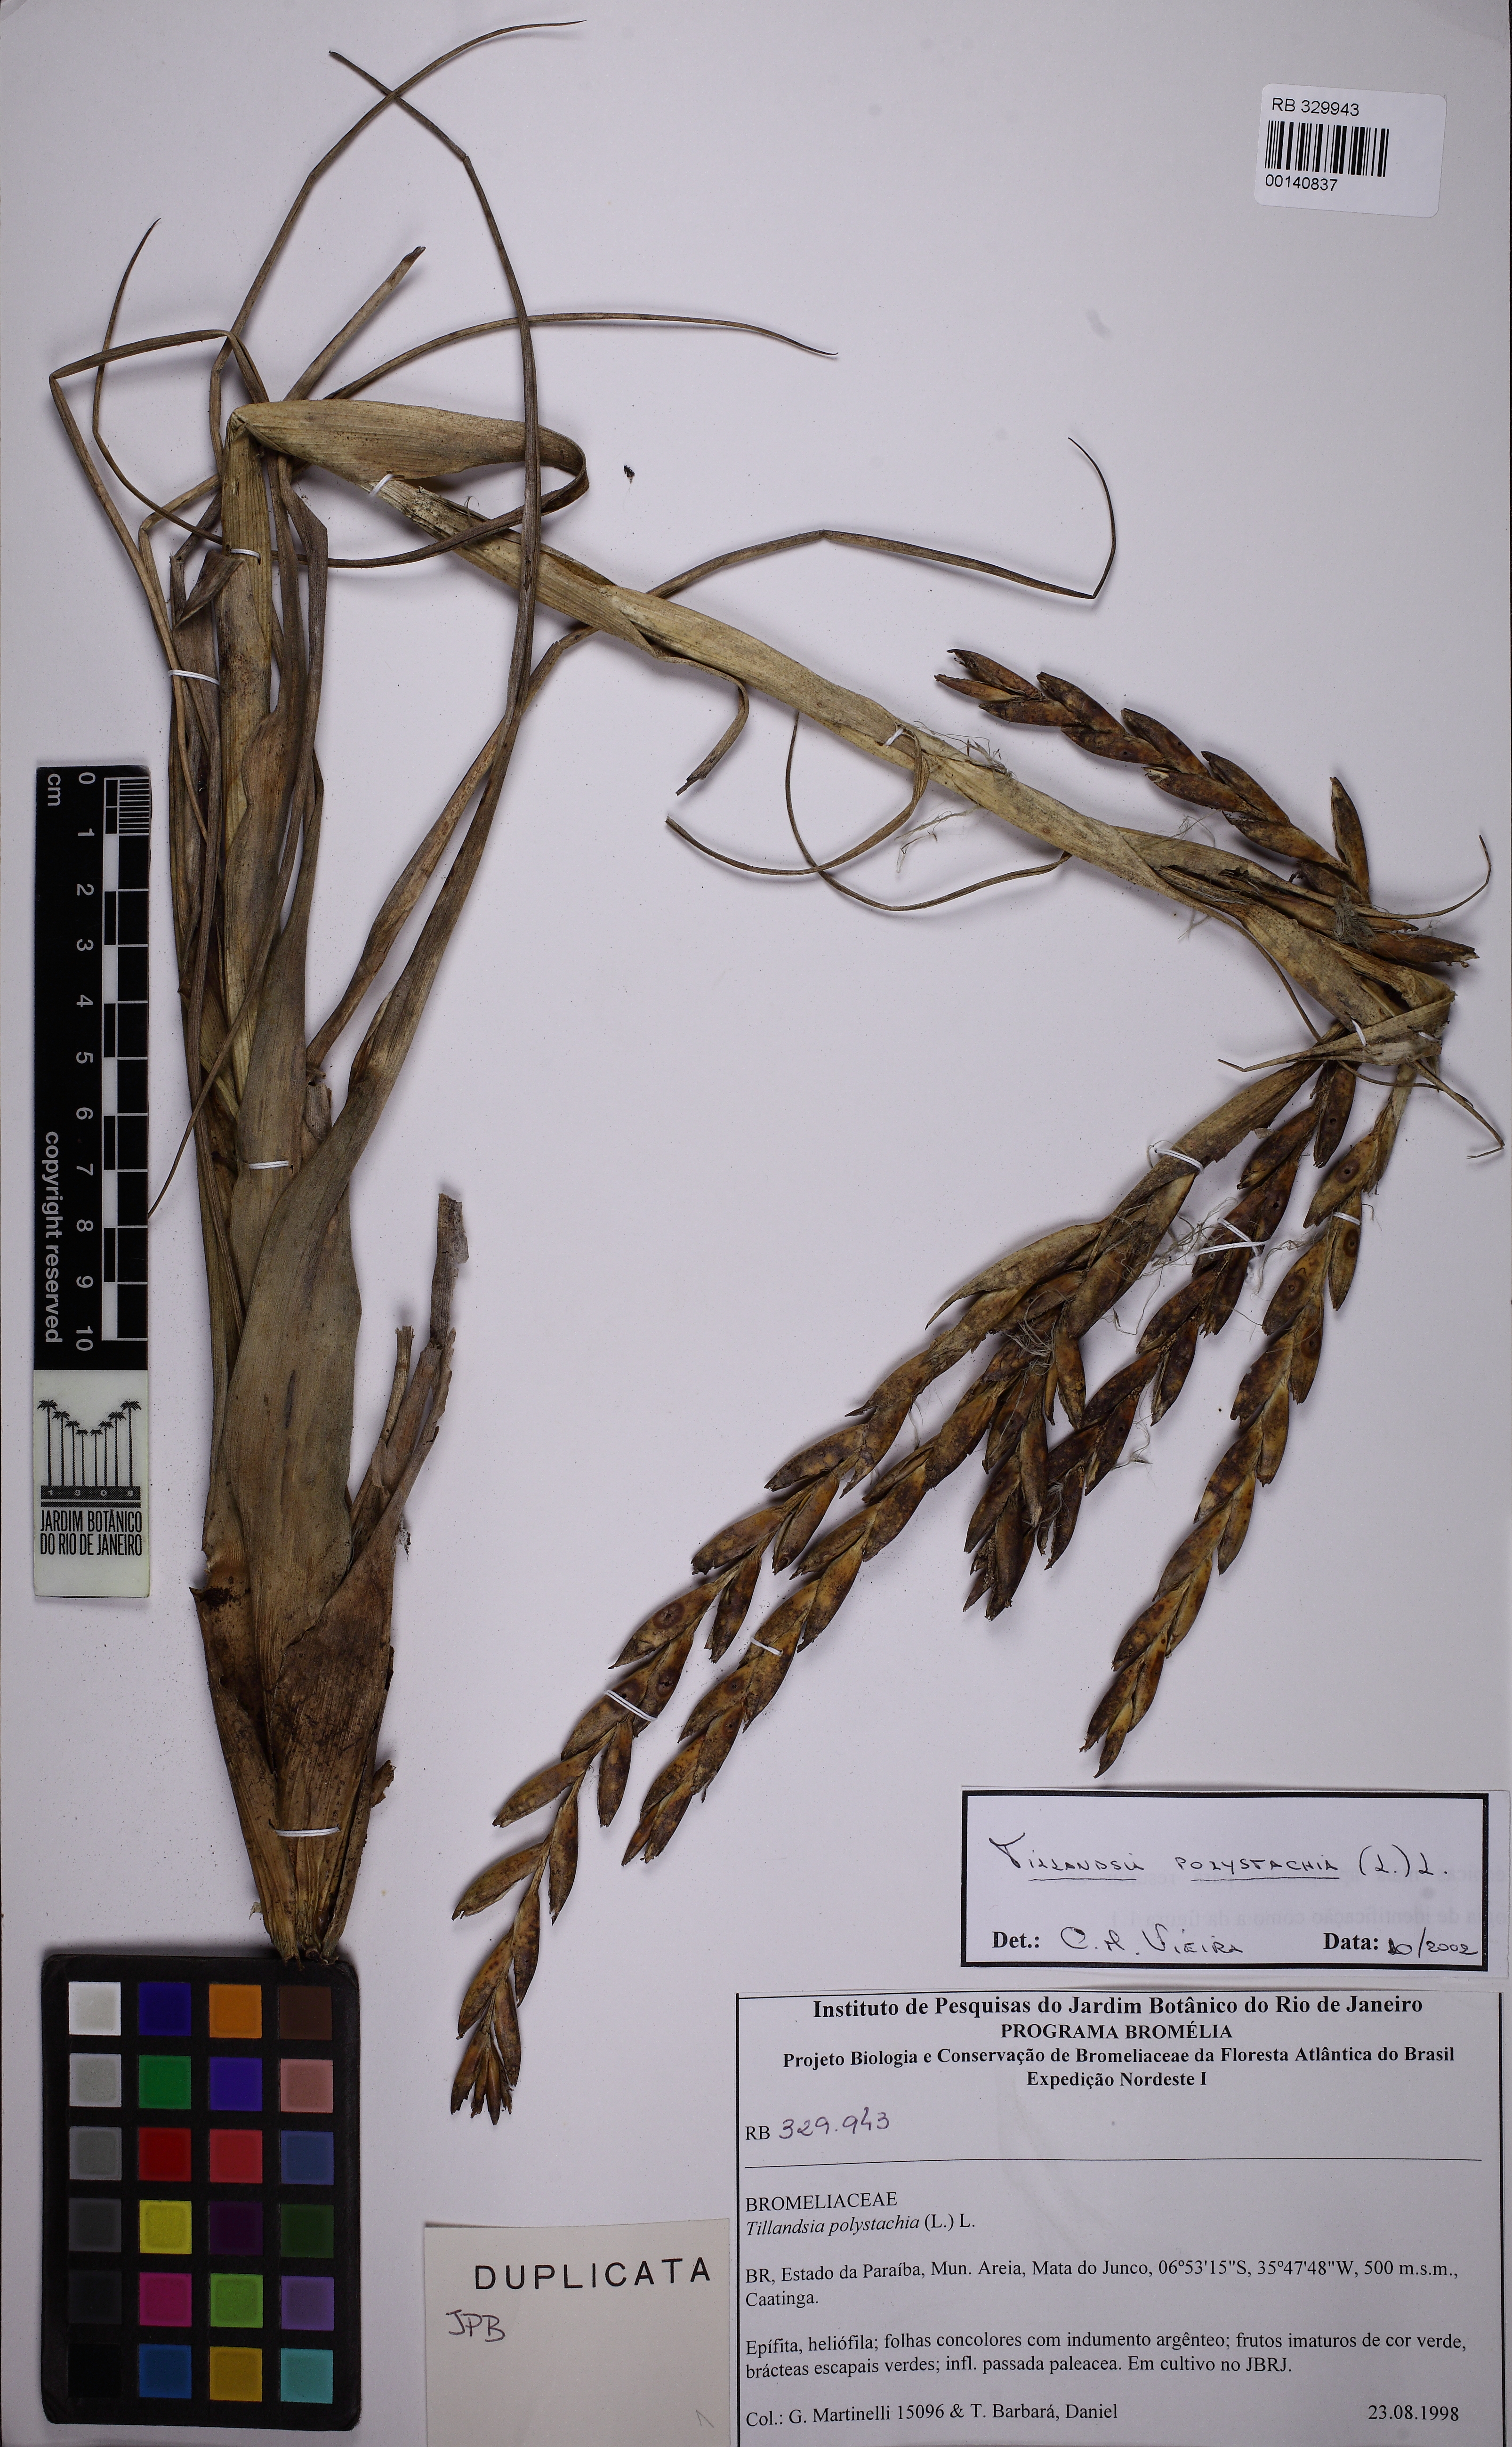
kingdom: Plantae
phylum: Tracheophyta
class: Liliopsida
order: Poales
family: Bromeliaceae
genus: Tillandsia
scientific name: Tillandsia polystachia
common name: Airplant
